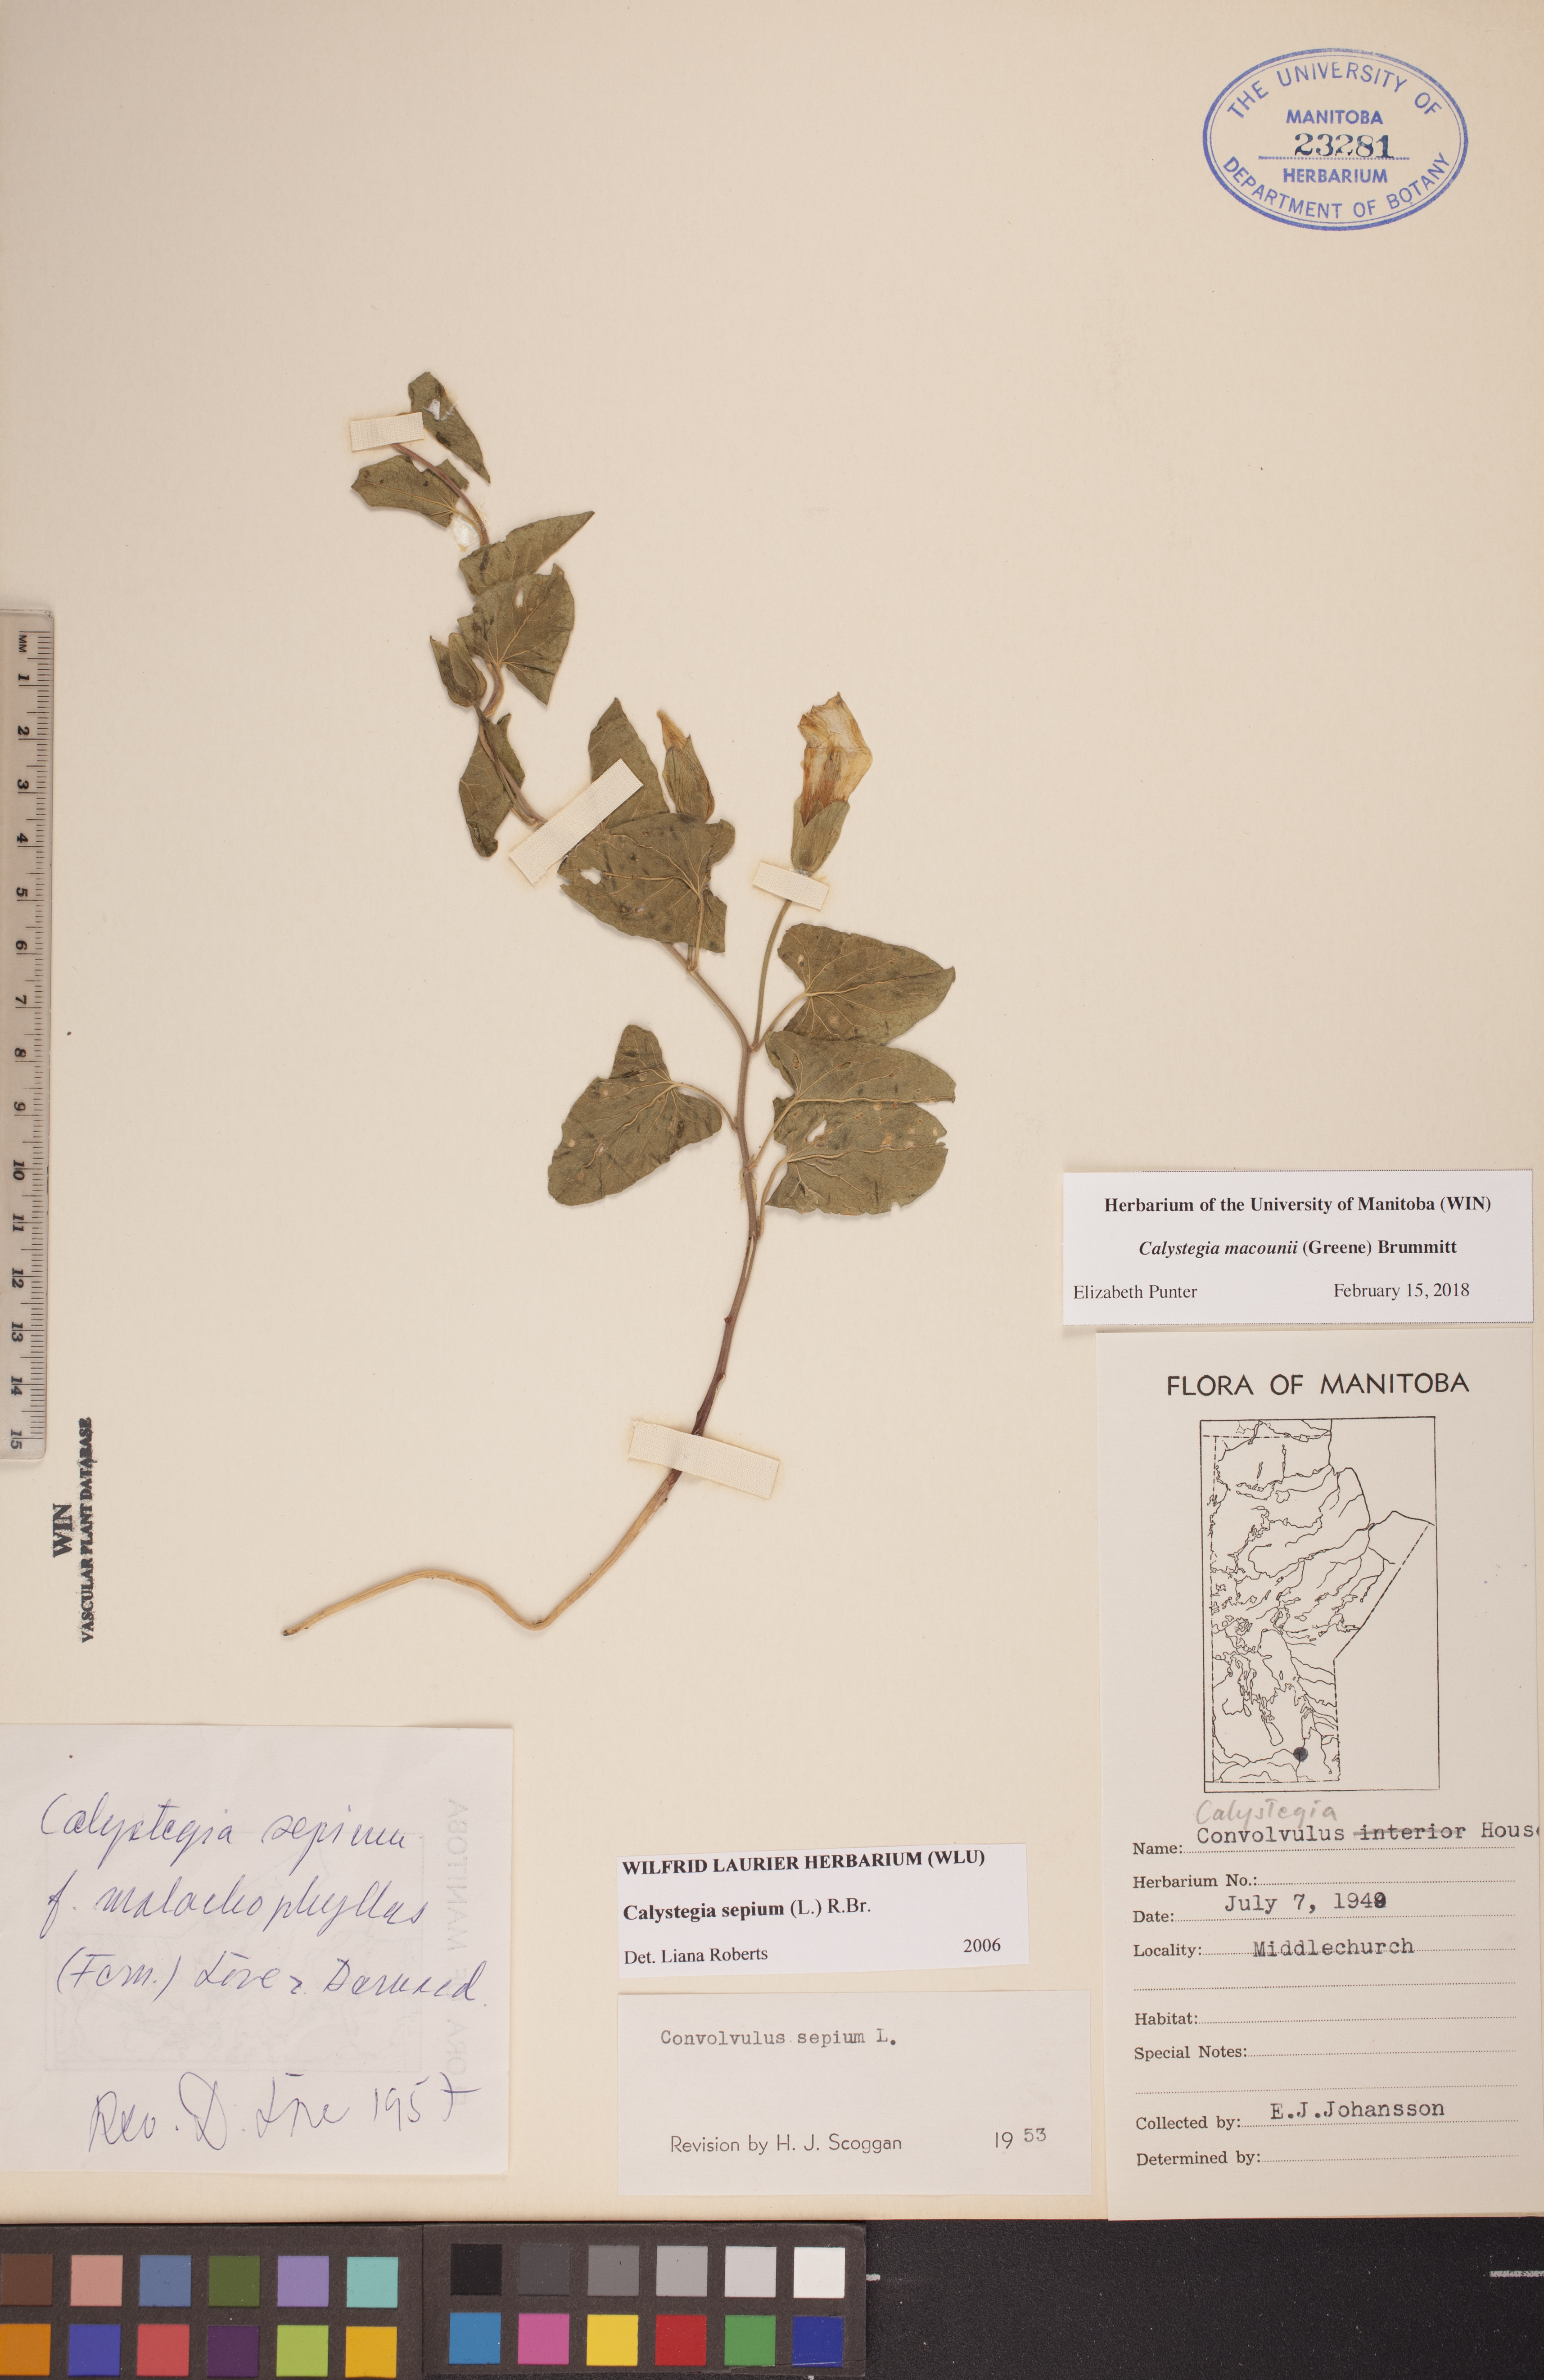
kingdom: Plantae
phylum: Tracheophyta
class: Magnoliopsida
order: Solanales
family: Convolvulaceae
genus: Calystegia
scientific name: Calystegia macounii
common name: Macoun's bindweed
